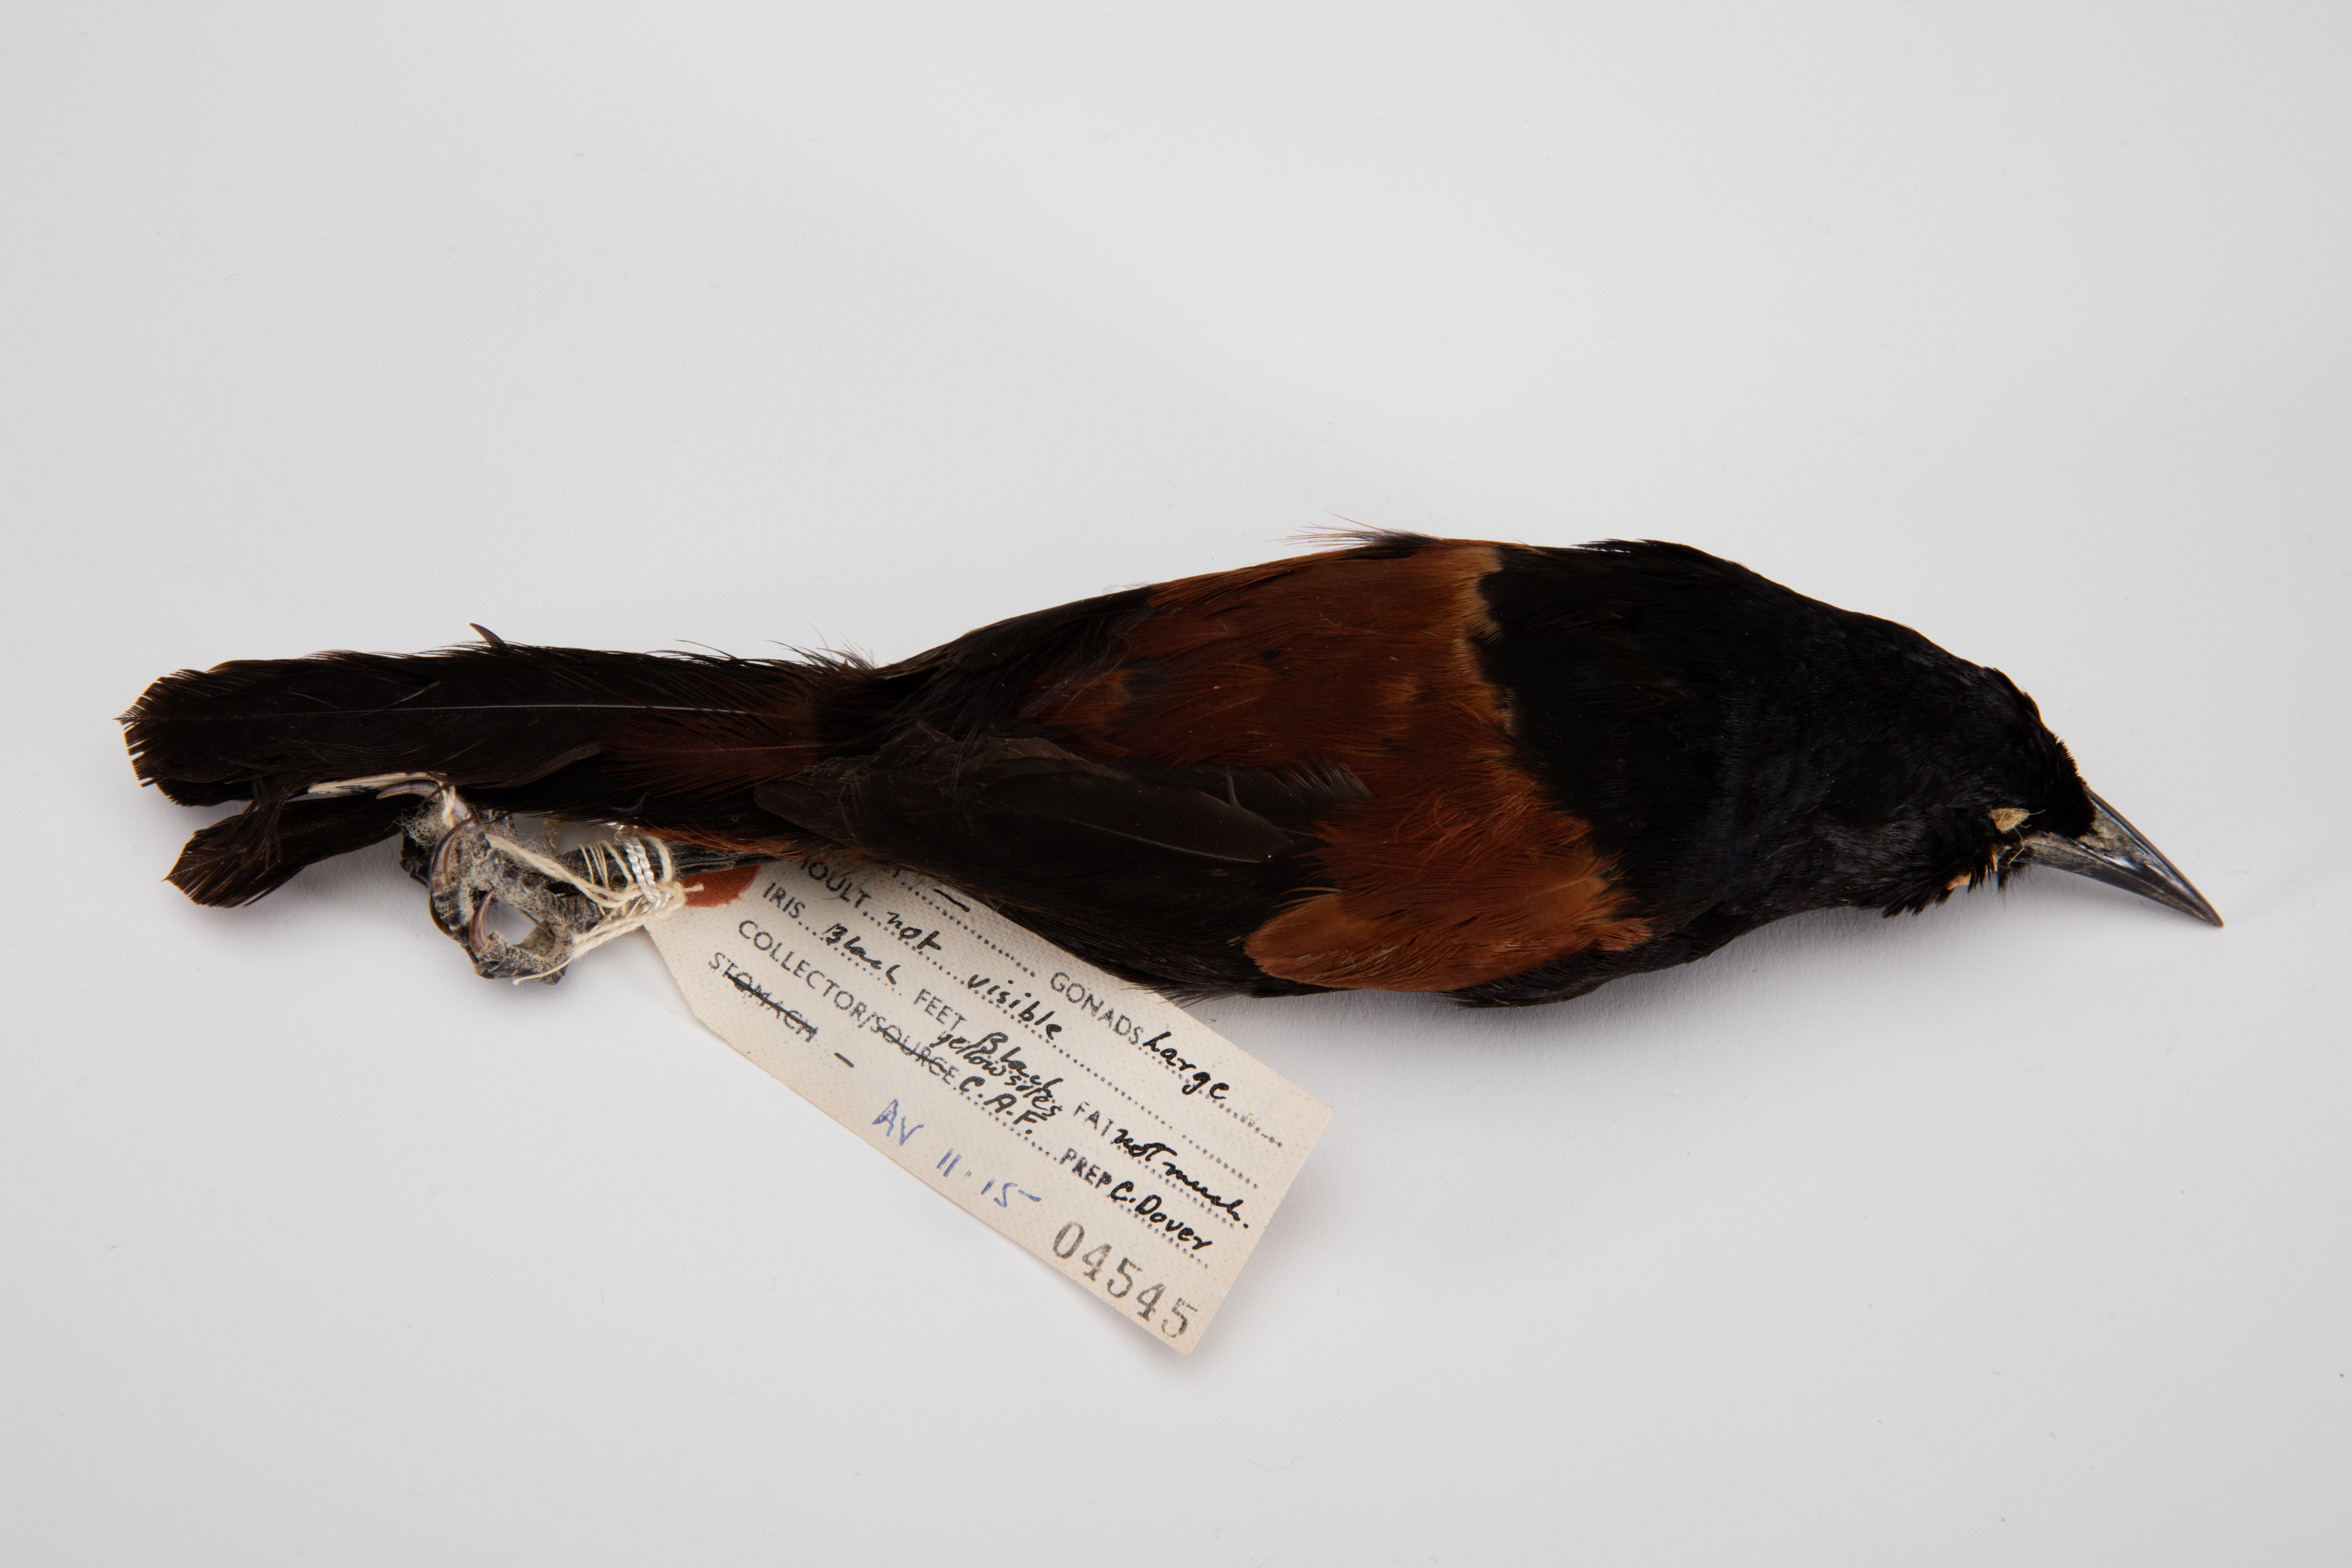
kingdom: Animalia
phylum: Chordata
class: Aves
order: Passeriformes
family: Callaeatidae
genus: Philesturnus
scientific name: Philesturnus carunculatus
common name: South island saddleback
